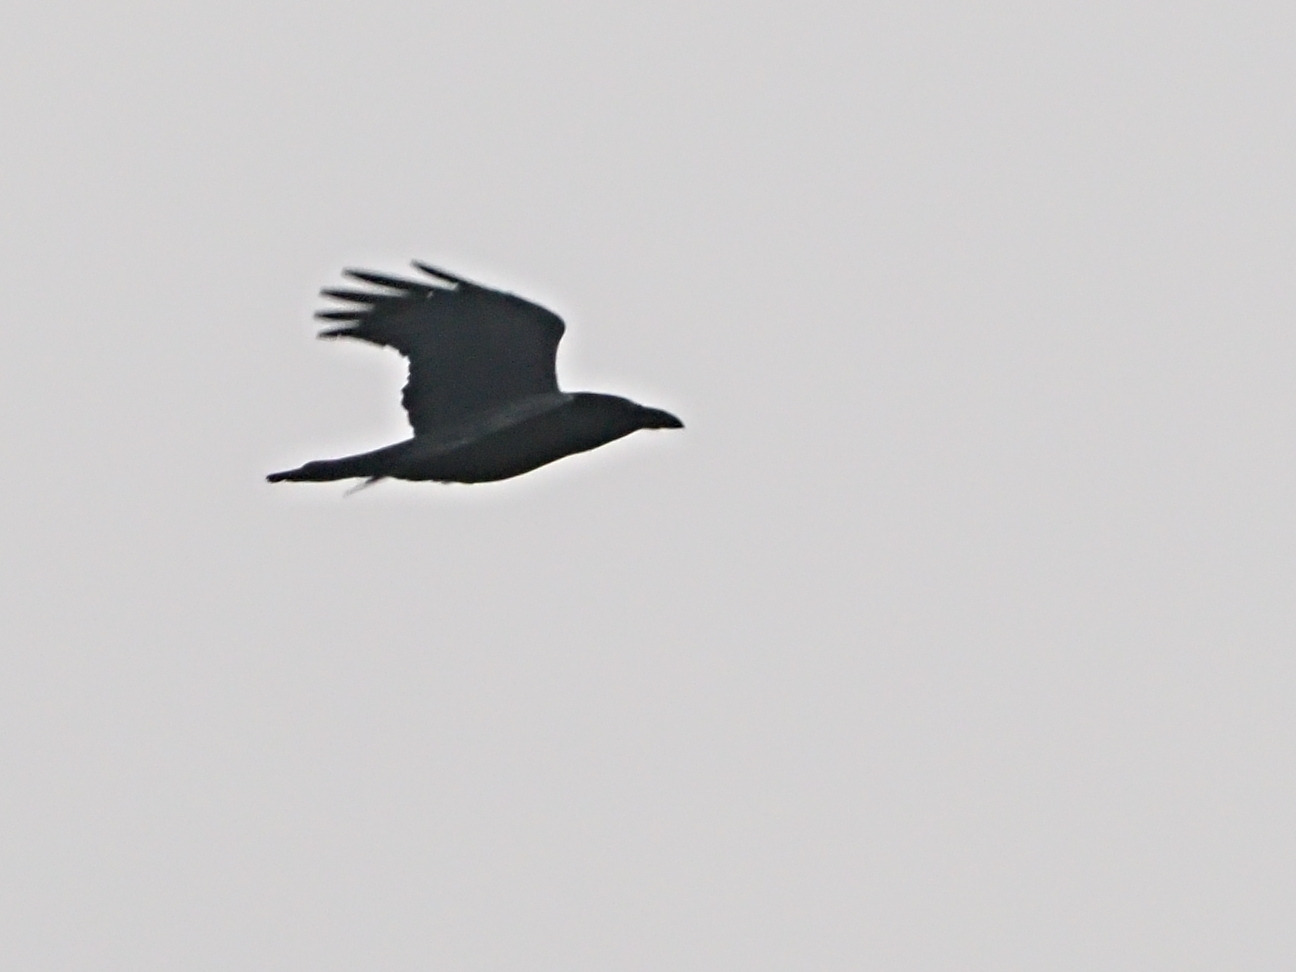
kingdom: Animalia
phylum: Chordata
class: Aves
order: Passeriformes
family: Corvidae
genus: Corvus
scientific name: Corvus corax
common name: Ravn
